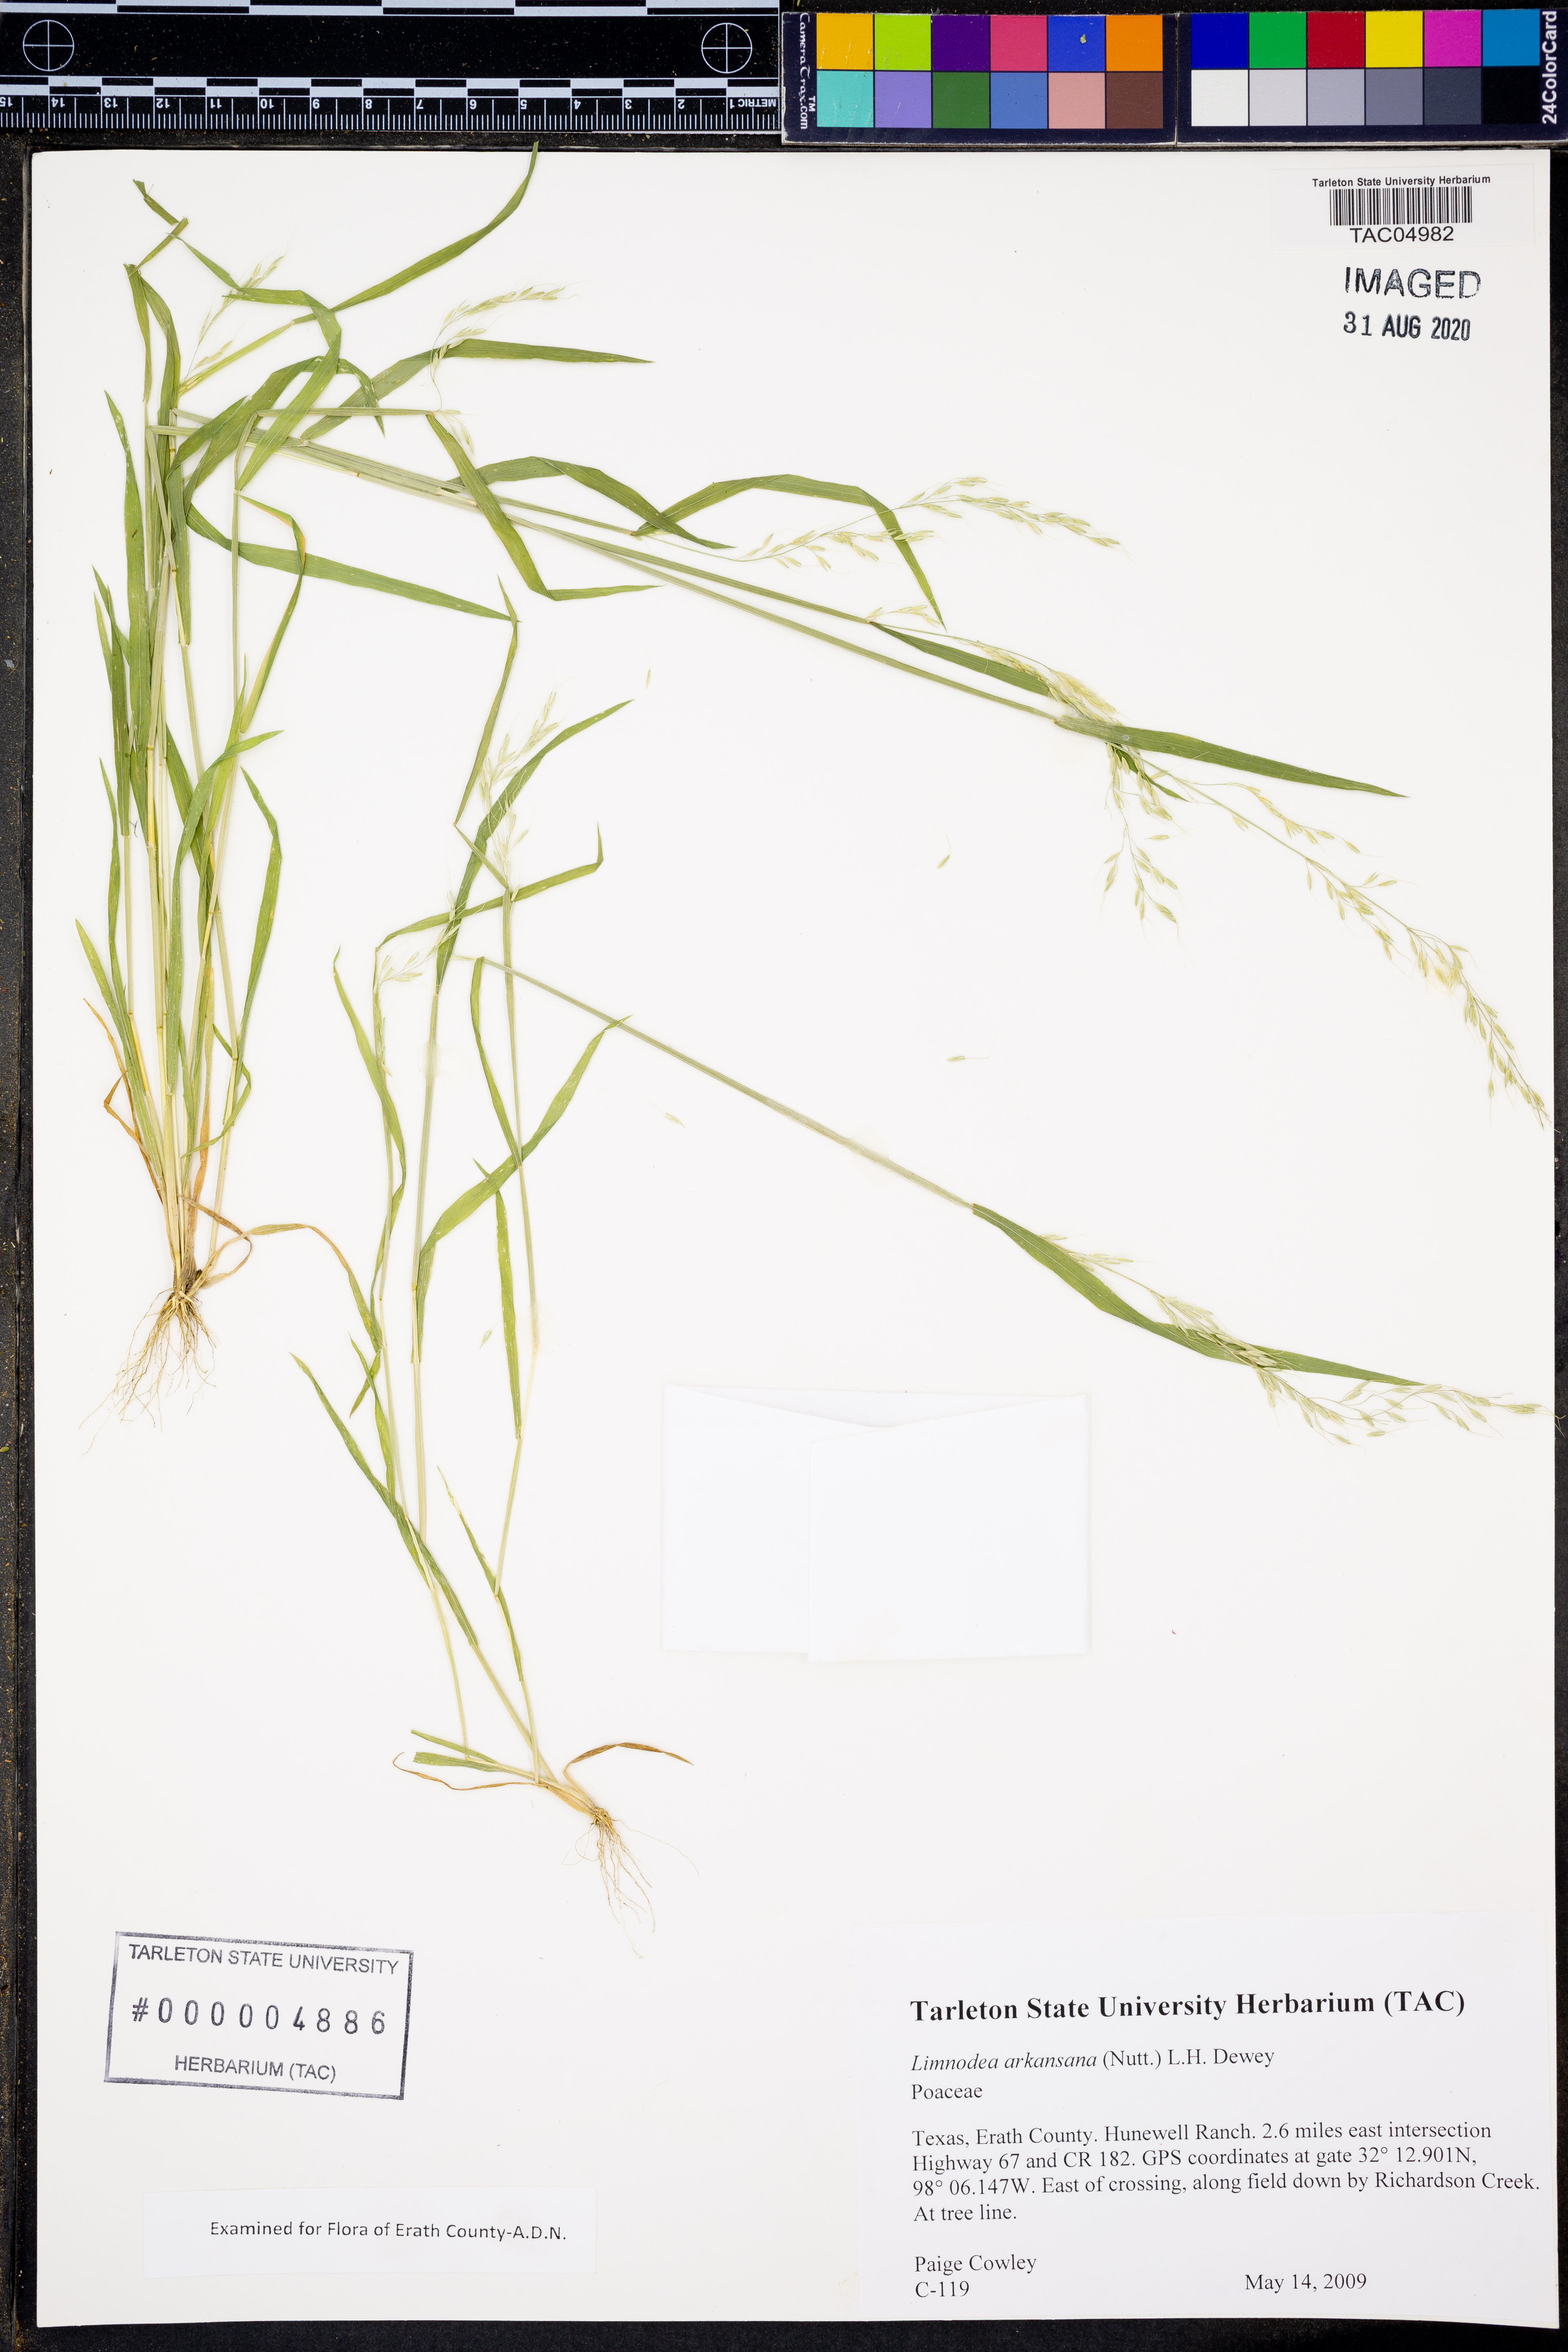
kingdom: Plantae
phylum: Tracheophyta
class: Liliopsida
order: Poales
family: Poaceae
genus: Limnodea
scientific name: Limnodea arkansana
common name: Ozark-grass
